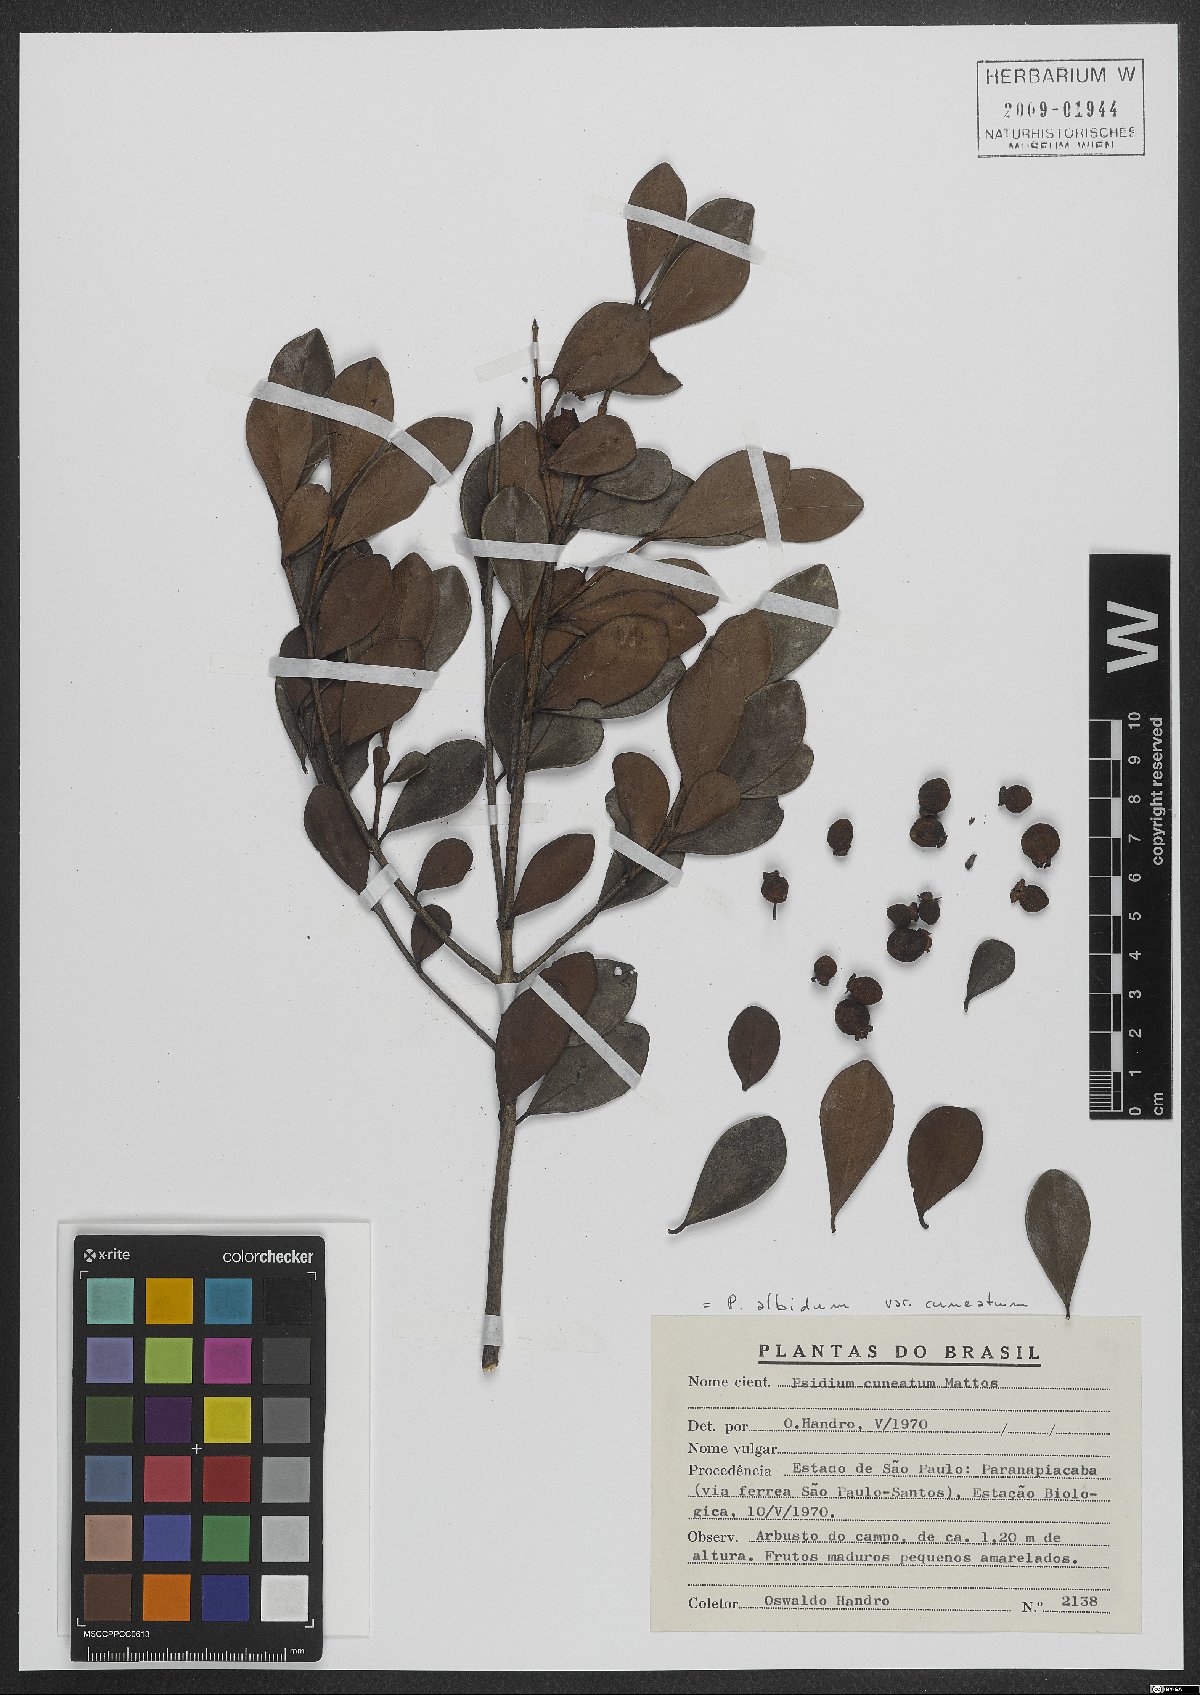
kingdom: Plantae
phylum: Tracheophyta
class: Magnoliopsida
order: Myrtales
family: Myrtaceae
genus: Psidium
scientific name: Psidium guineense
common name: Brazilian guava
